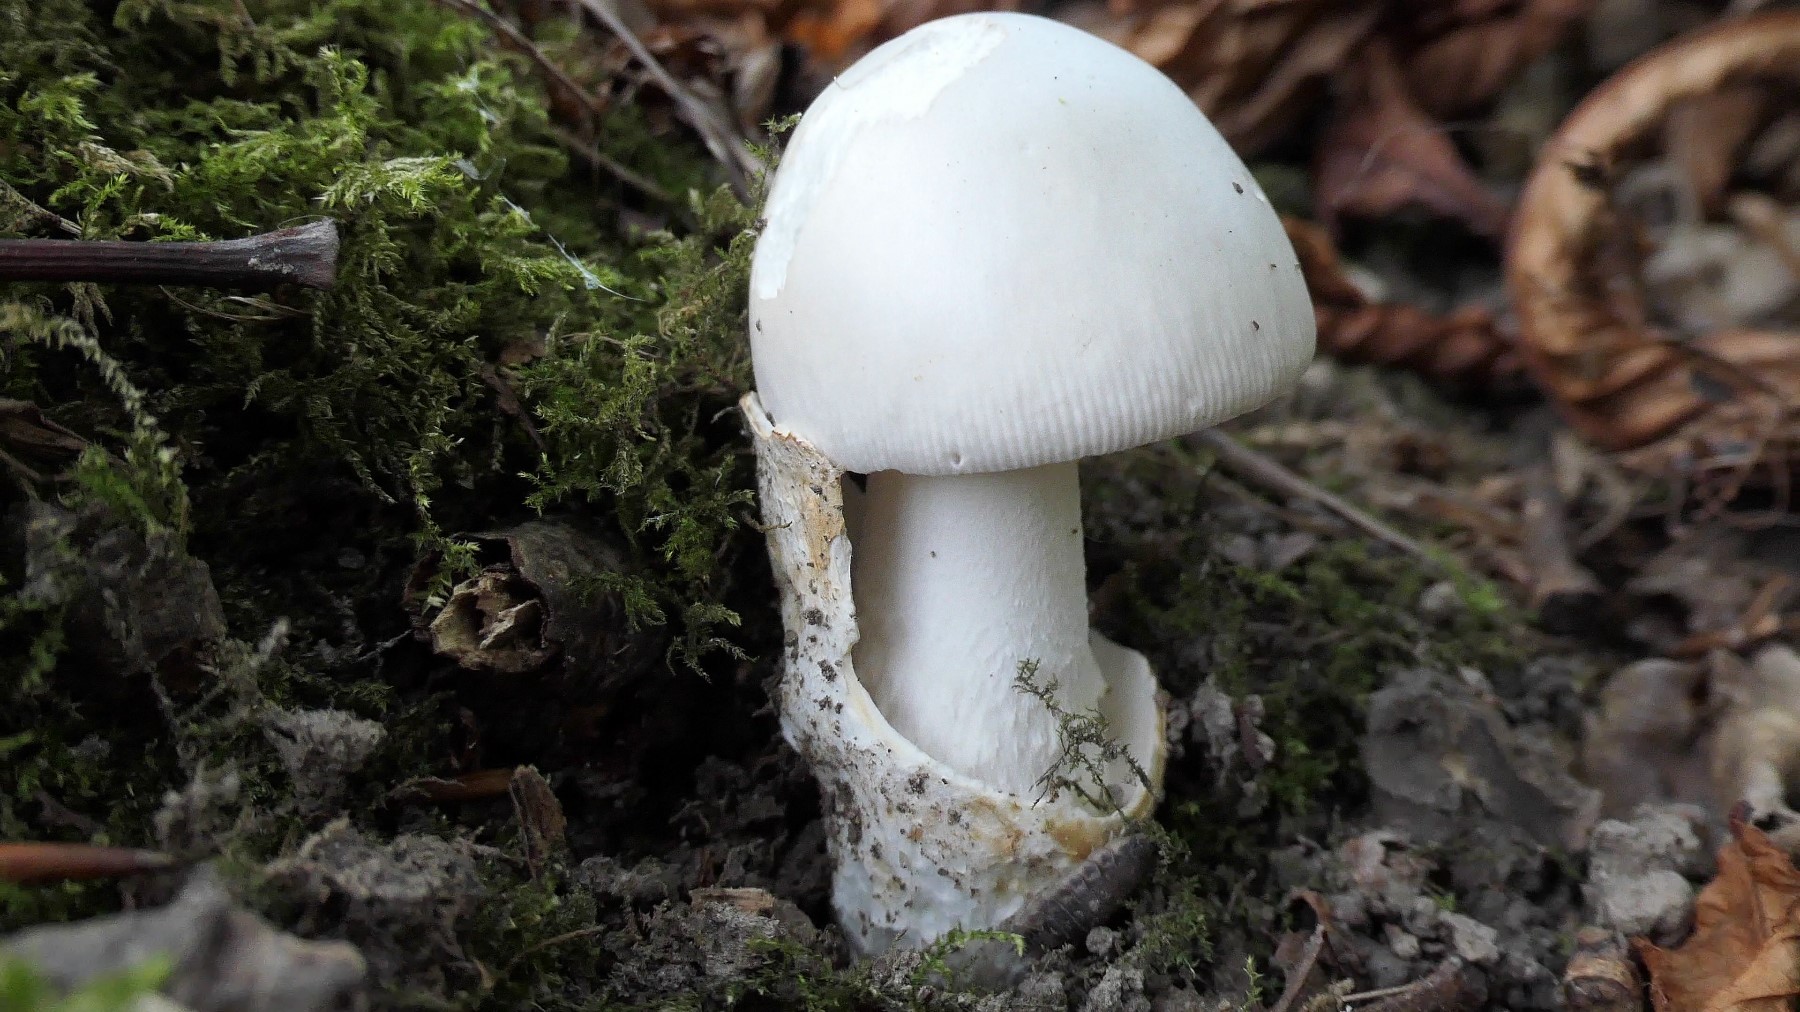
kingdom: Fungi
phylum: Basidiomycota
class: Agaricomycetes
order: Agaricales
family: Amanitaceae
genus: Amanita
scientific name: Amanita
